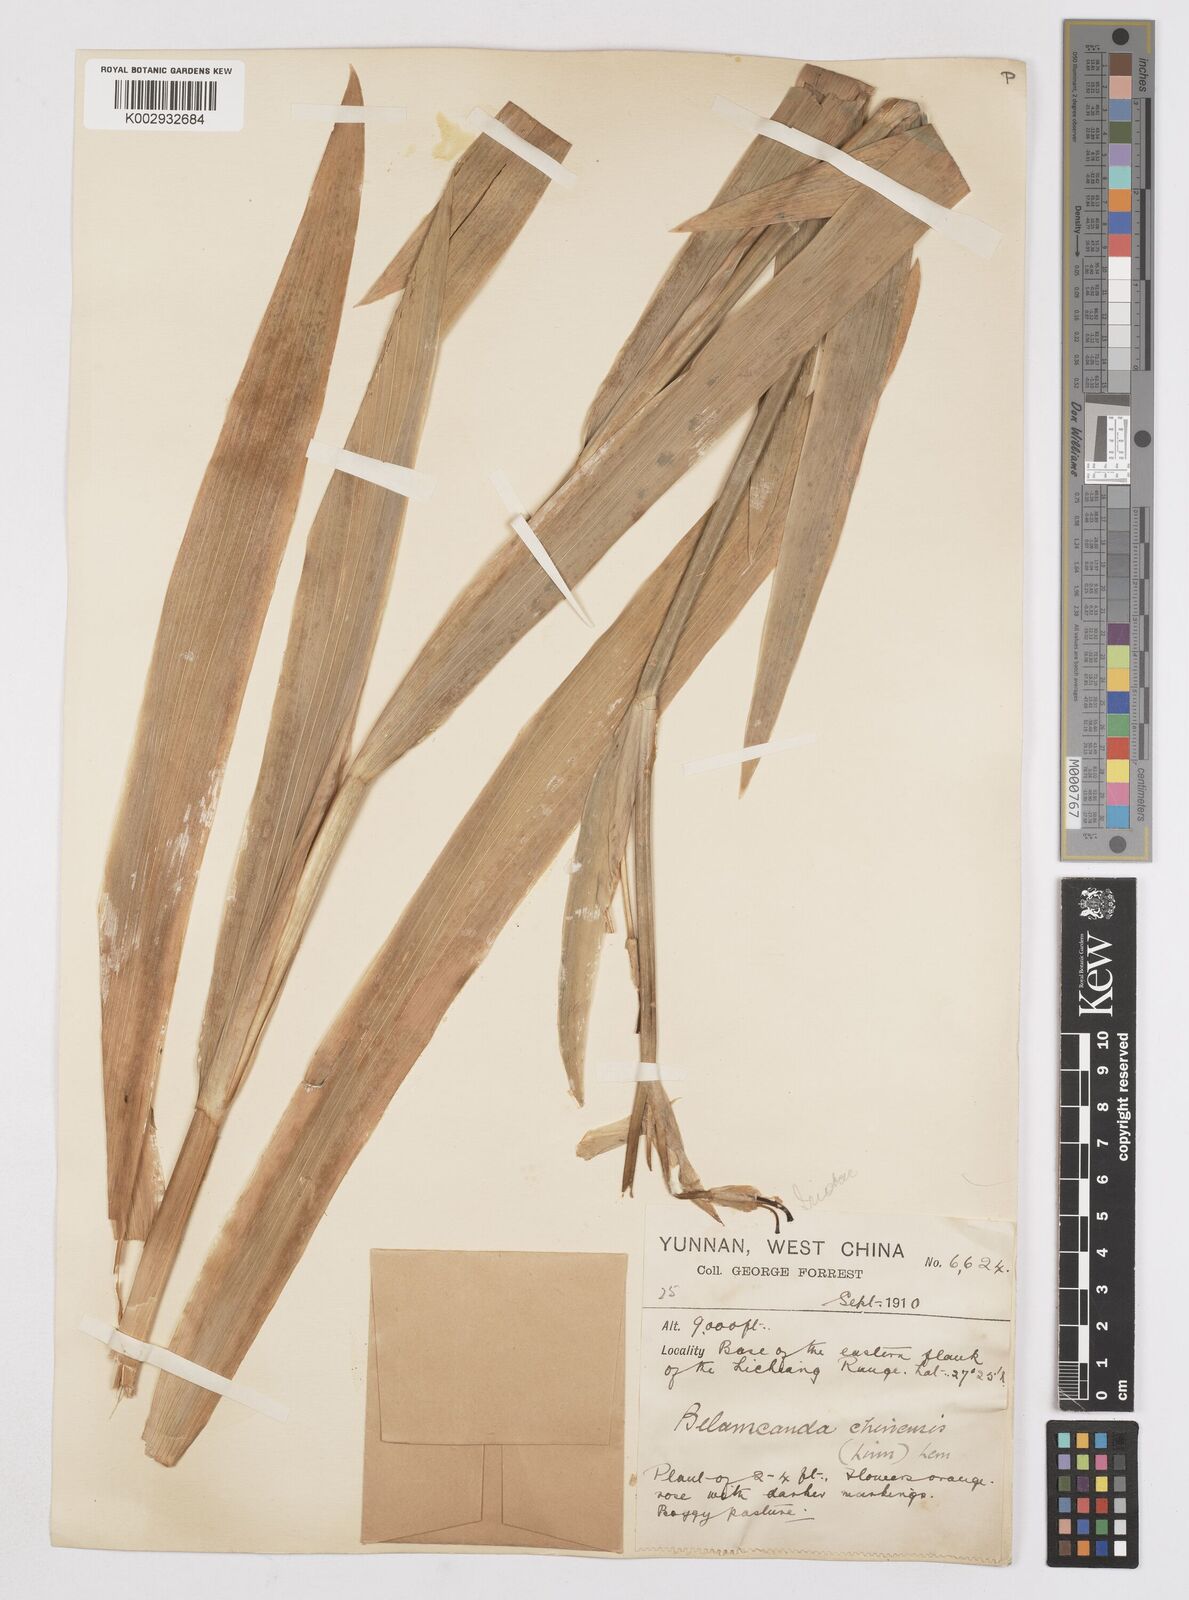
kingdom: Plantae
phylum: Tracheophyta
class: Liliopsida
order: Asparagales
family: Iridaceae
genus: Iris
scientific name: Iris
